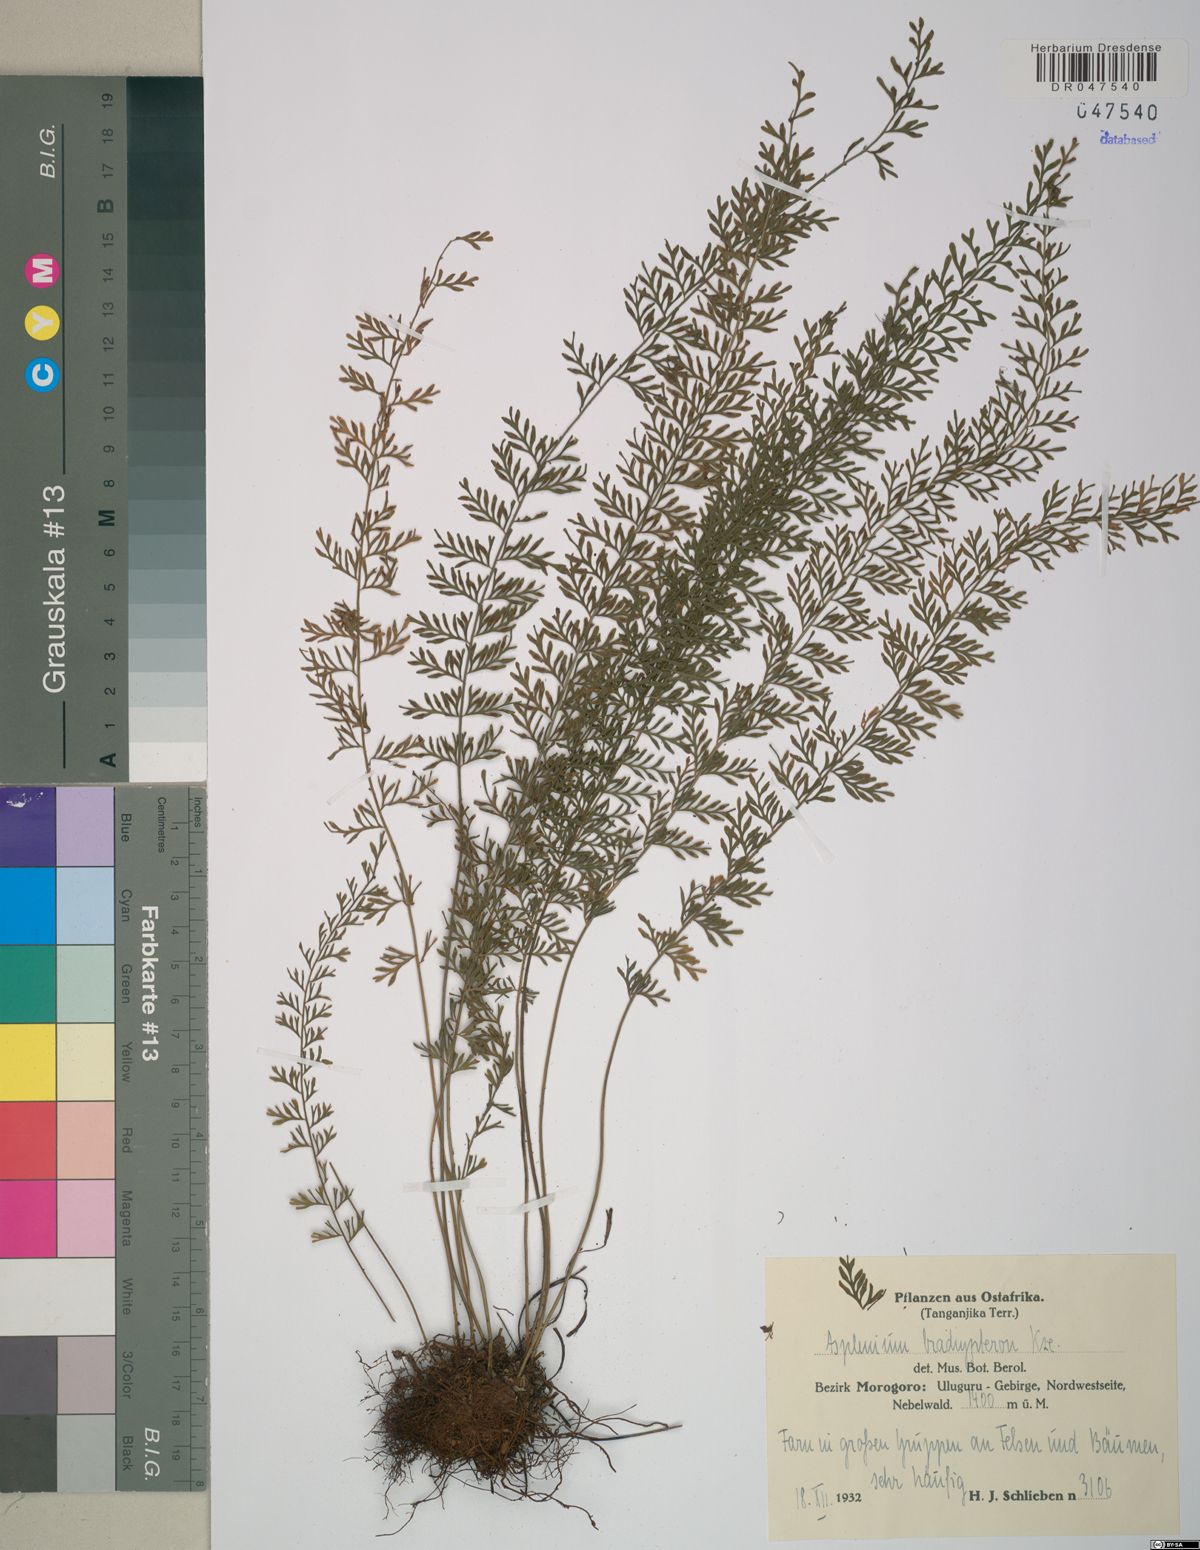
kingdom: Plantae
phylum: Tracheophyta
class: Polypodiopsida
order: Polypodiales
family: Aspleniaceae
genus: Asplenium
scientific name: Asplenium dregeanum
